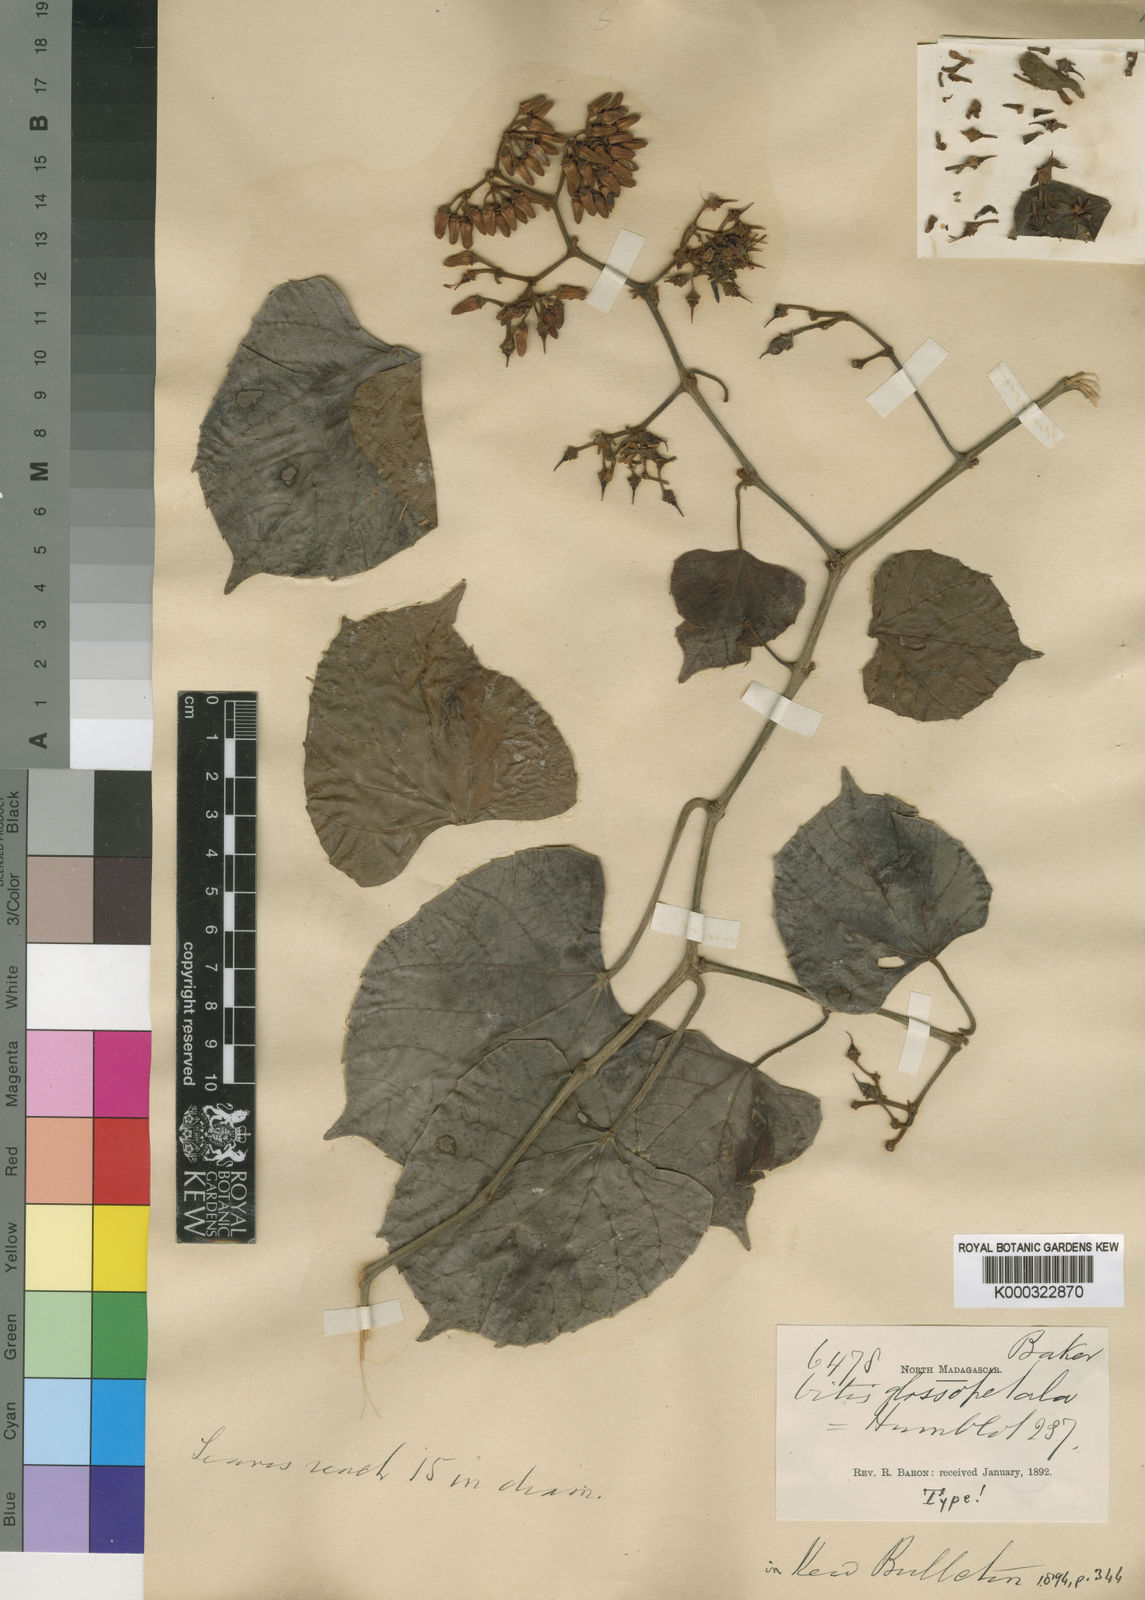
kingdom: Plantae
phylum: Tracheophyta
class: Magnoliopsida
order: Vitales
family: Vitaceae
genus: Cissus
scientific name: Cissus glossopetala
